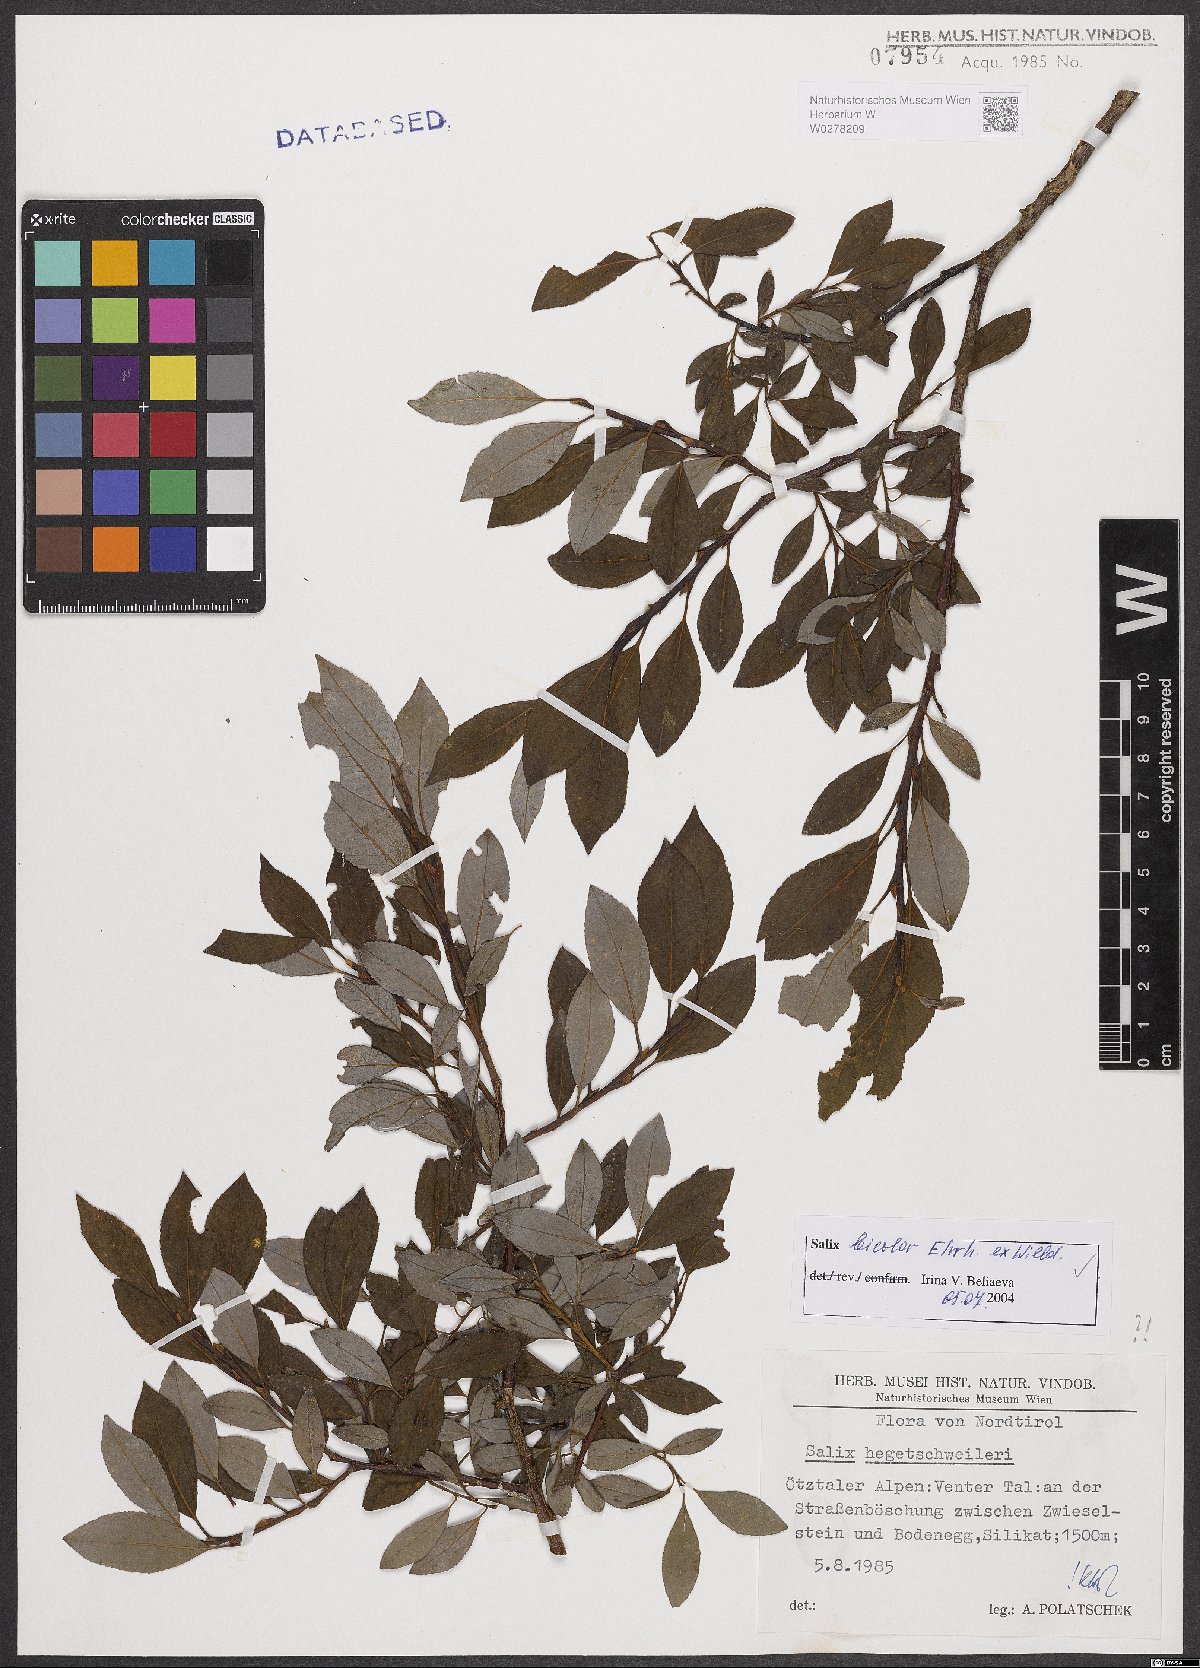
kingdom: Plantae
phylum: Tracheophyta
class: Magnoliopsida
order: Malpighiales
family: Salicaceae
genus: Salix
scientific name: Salix bicolor
